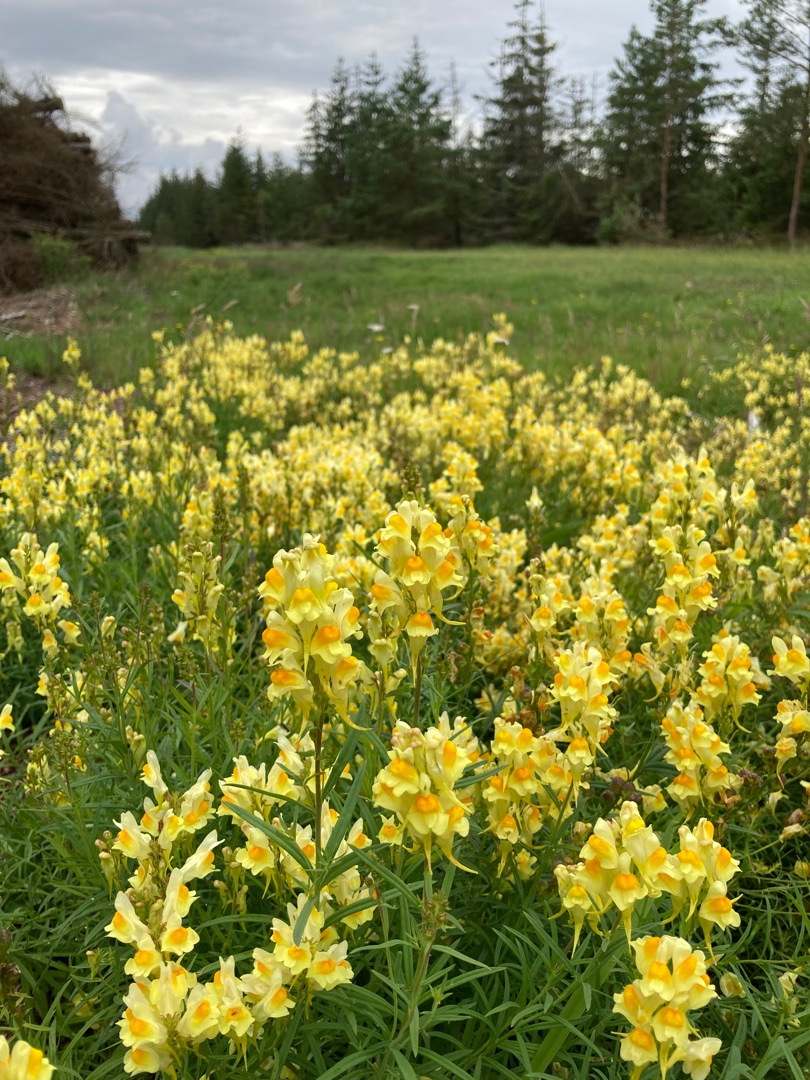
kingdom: Plantae
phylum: Tracheophyta
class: Magnoliopsida
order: Lamiales
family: Plantaginaceae
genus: Linaria
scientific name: Linaria vulgaris
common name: Almindelig torskemund
